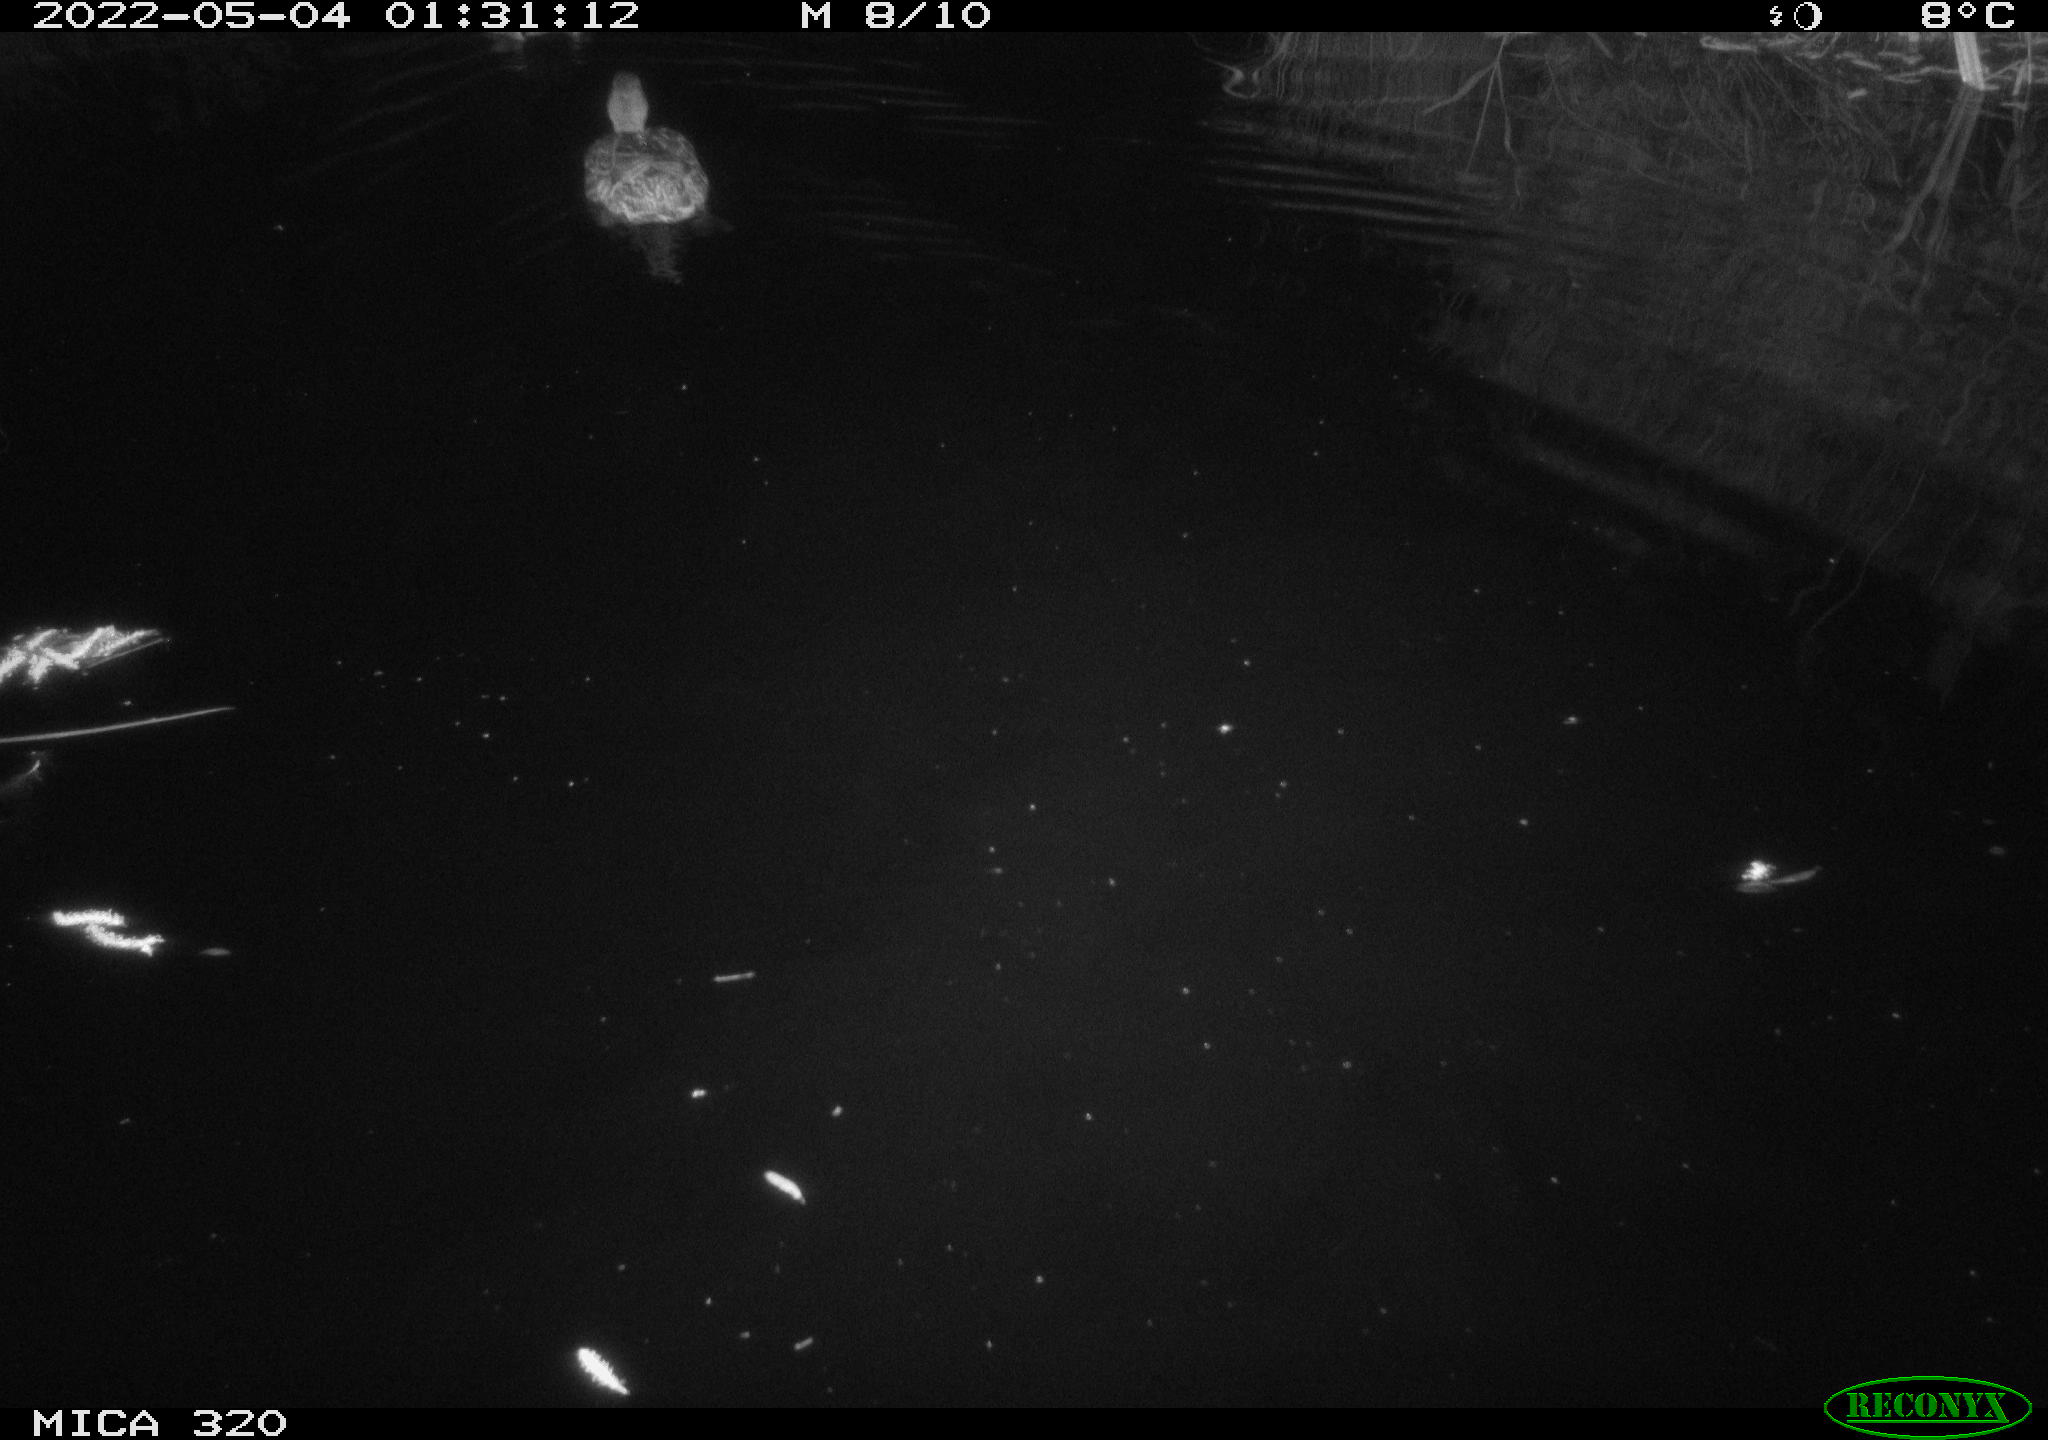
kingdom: Animalia
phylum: Chordata
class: Aves
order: Anseriformes
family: Anatidae
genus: Anas
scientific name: Anas platyrhynchos
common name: Mallard
